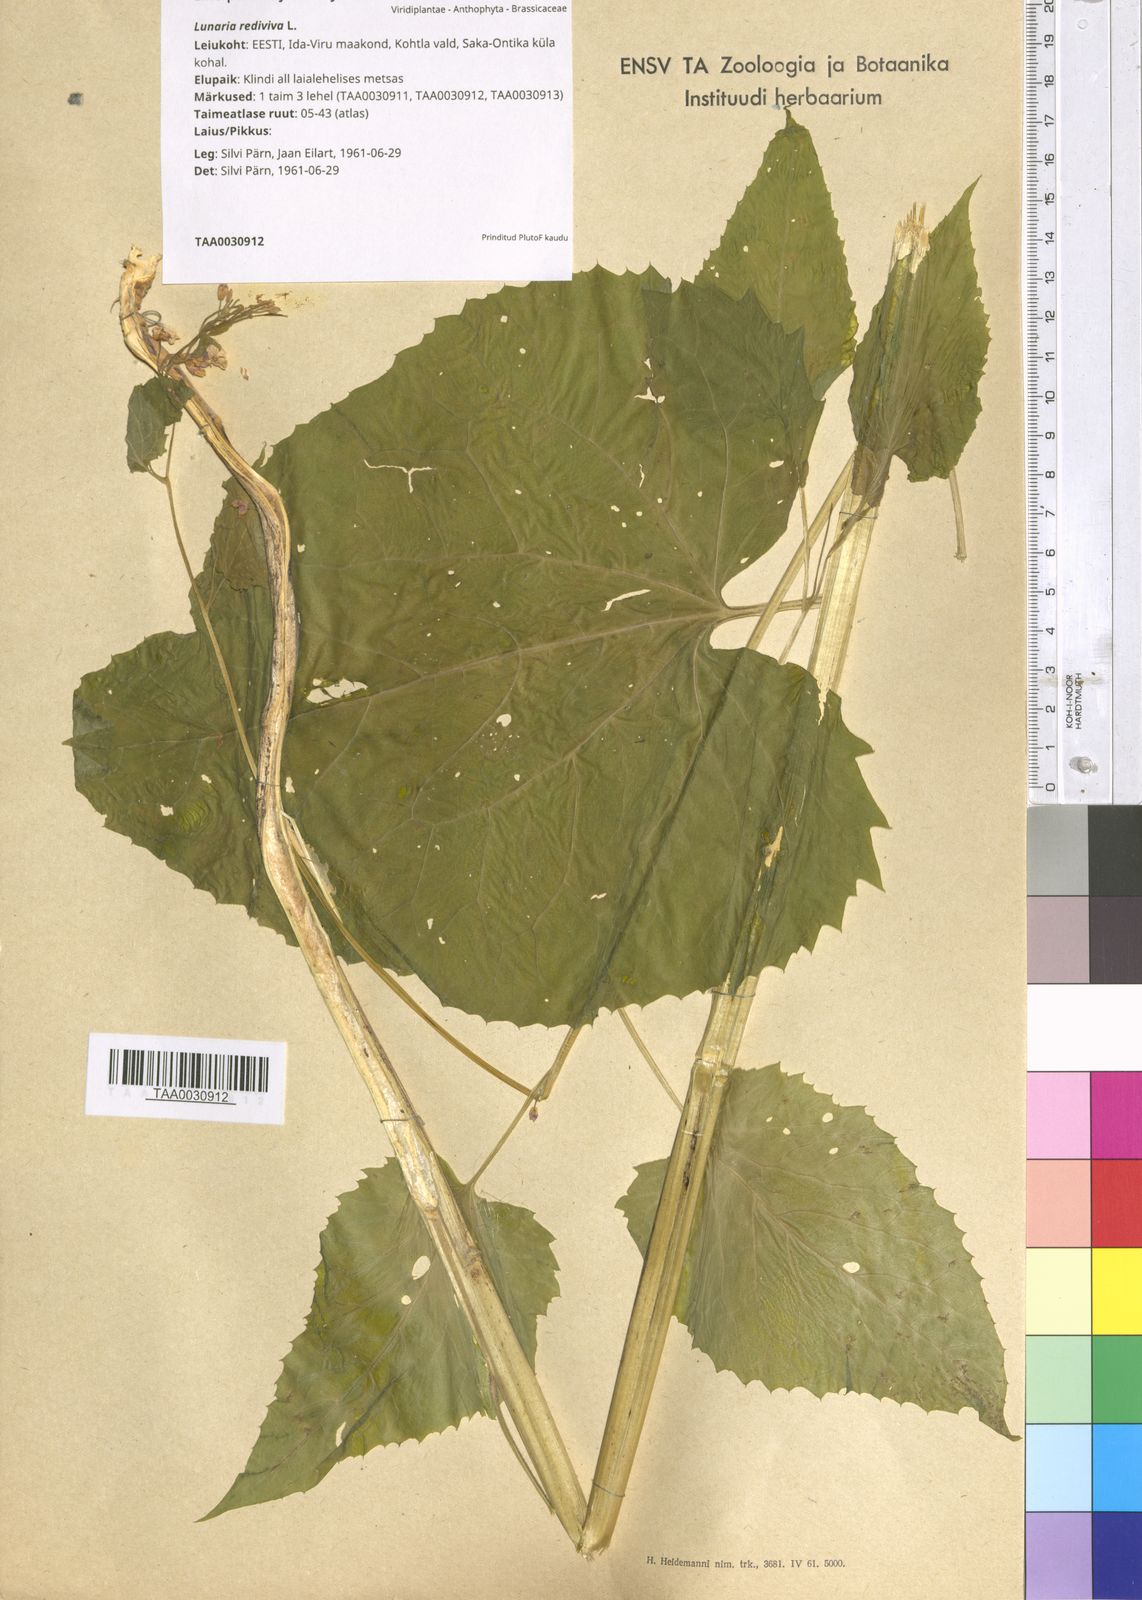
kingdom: Plantae
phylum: Tracheophyta
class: Magnoliopsida
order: Brassicales
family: Brassicaceae
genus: Lunaria
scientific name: Lunaria rediviva
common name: Perennial honesty
